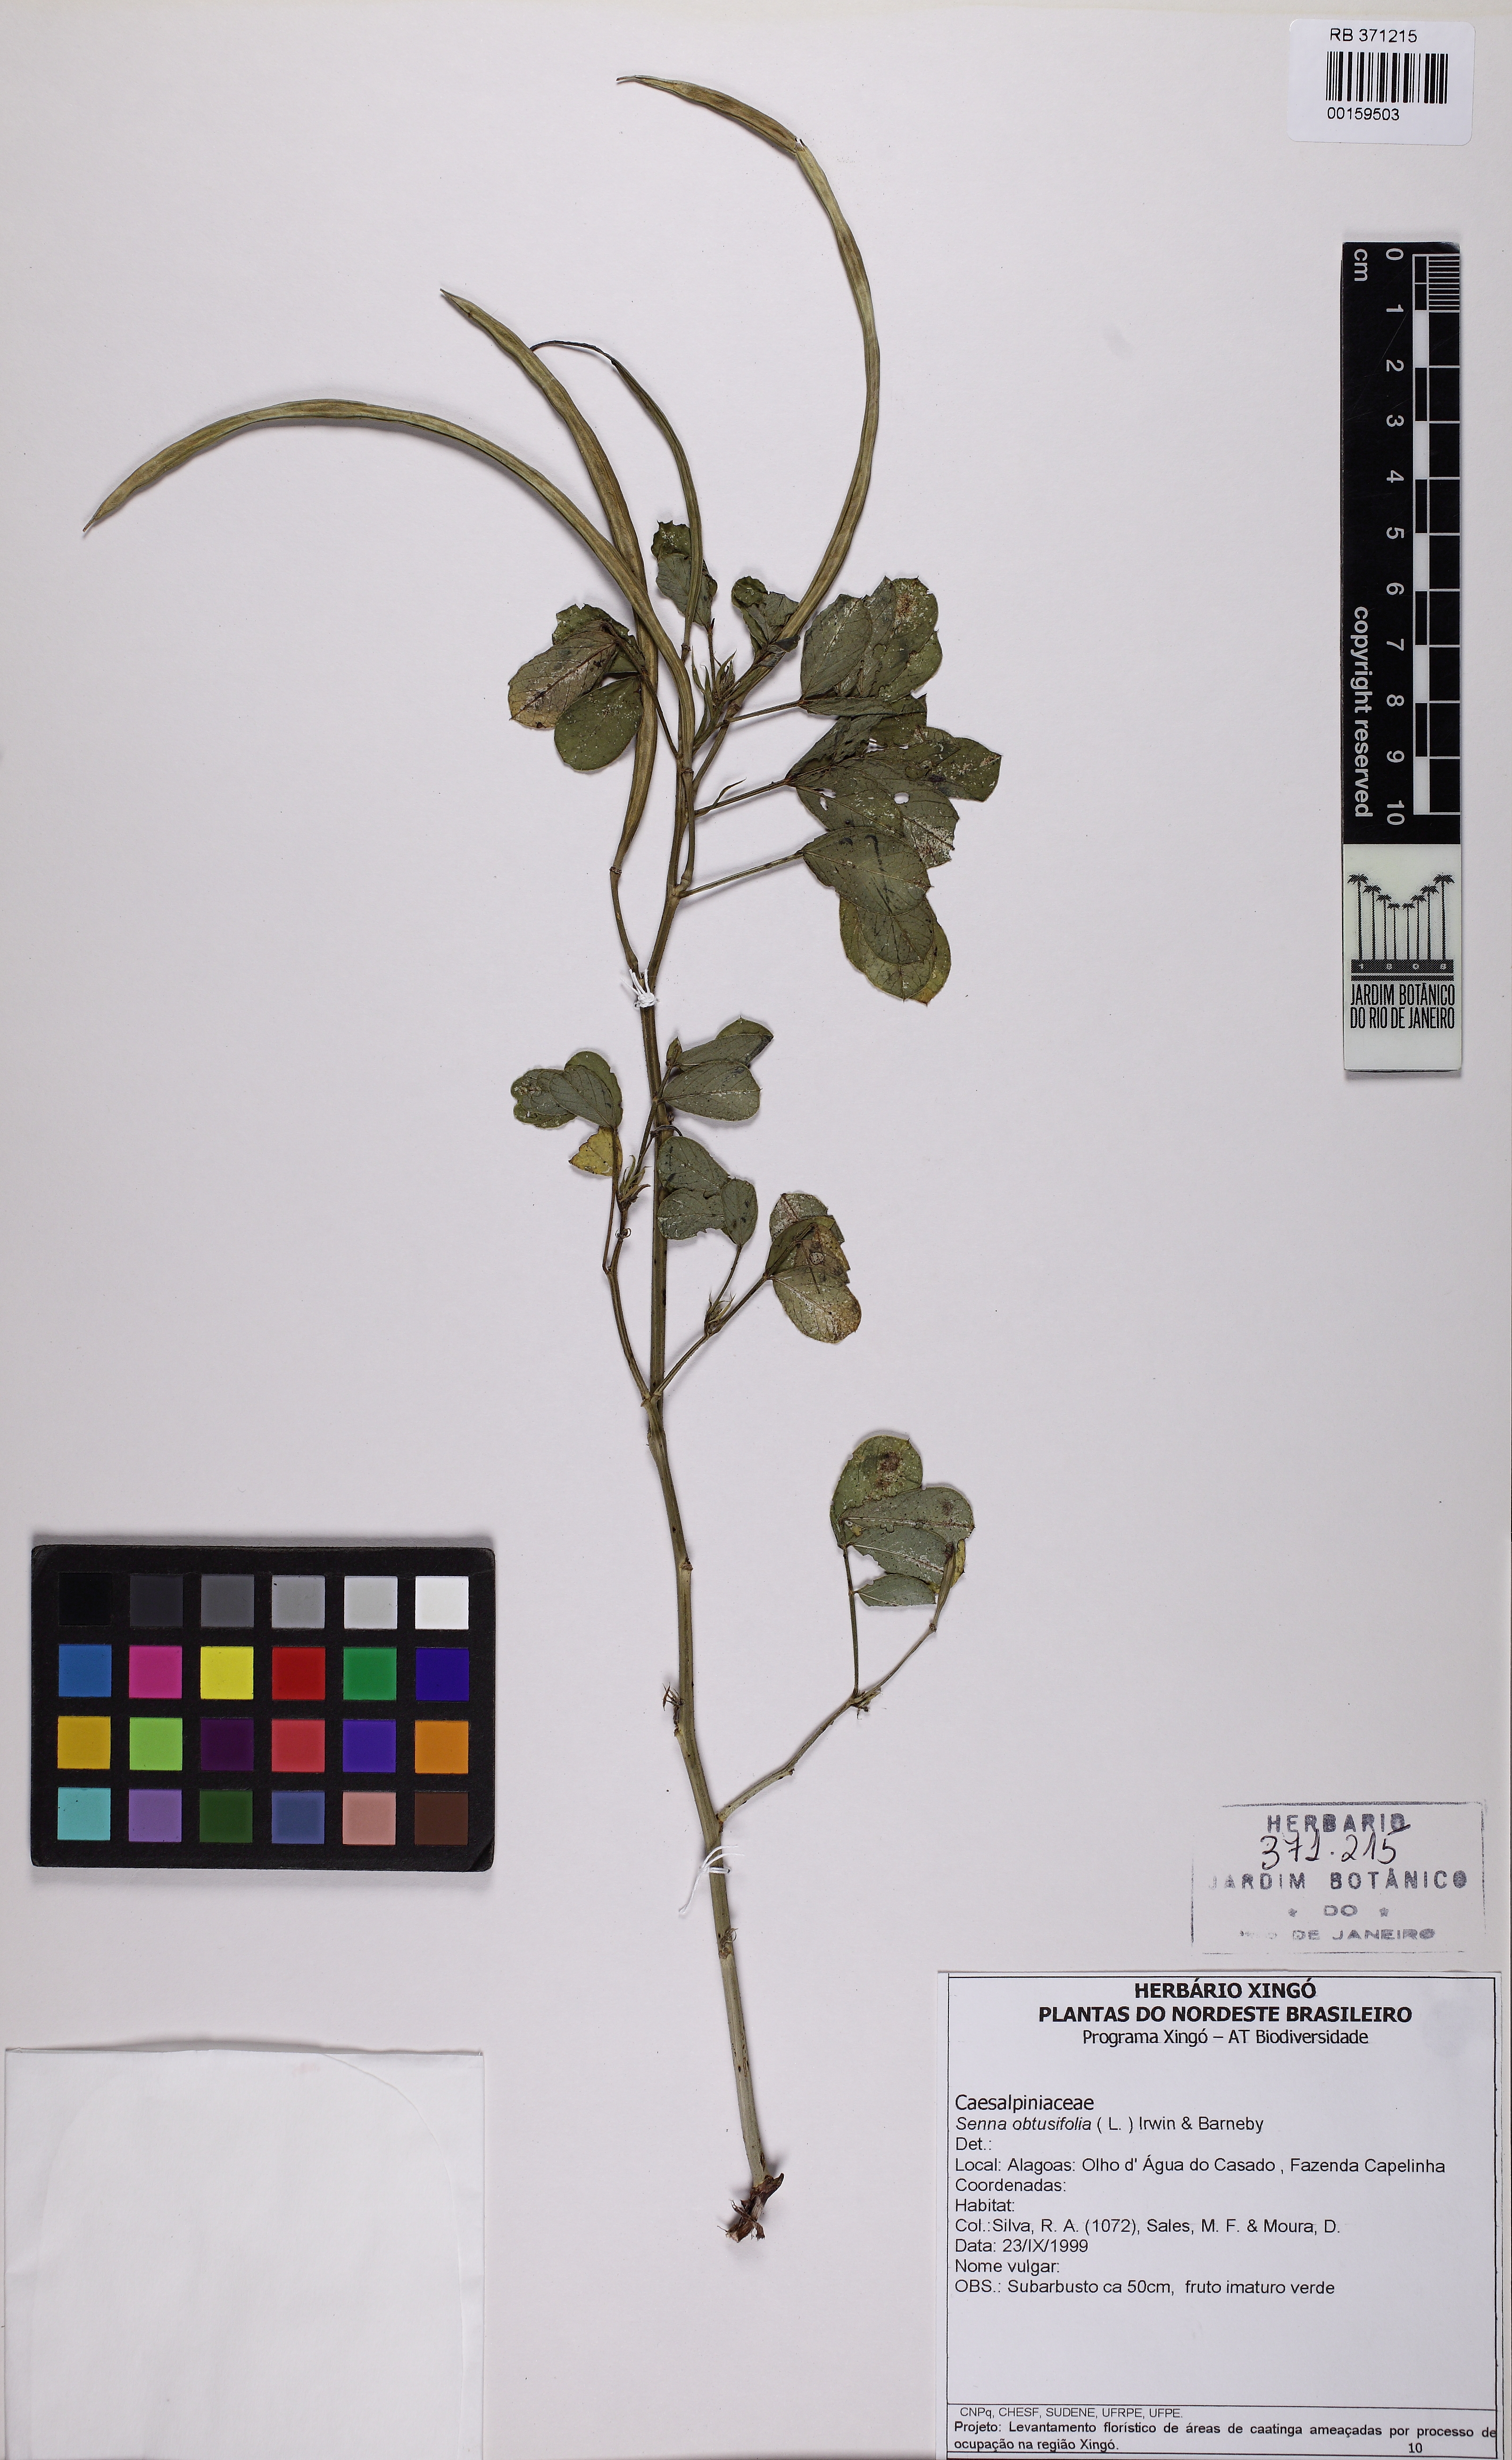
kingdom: Plantae
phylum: Tracheophyta
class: Magnoliopsida
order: Fabales
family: Fabaceae
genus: Senna
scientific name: Senna obtusifolia
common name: Java-bean
